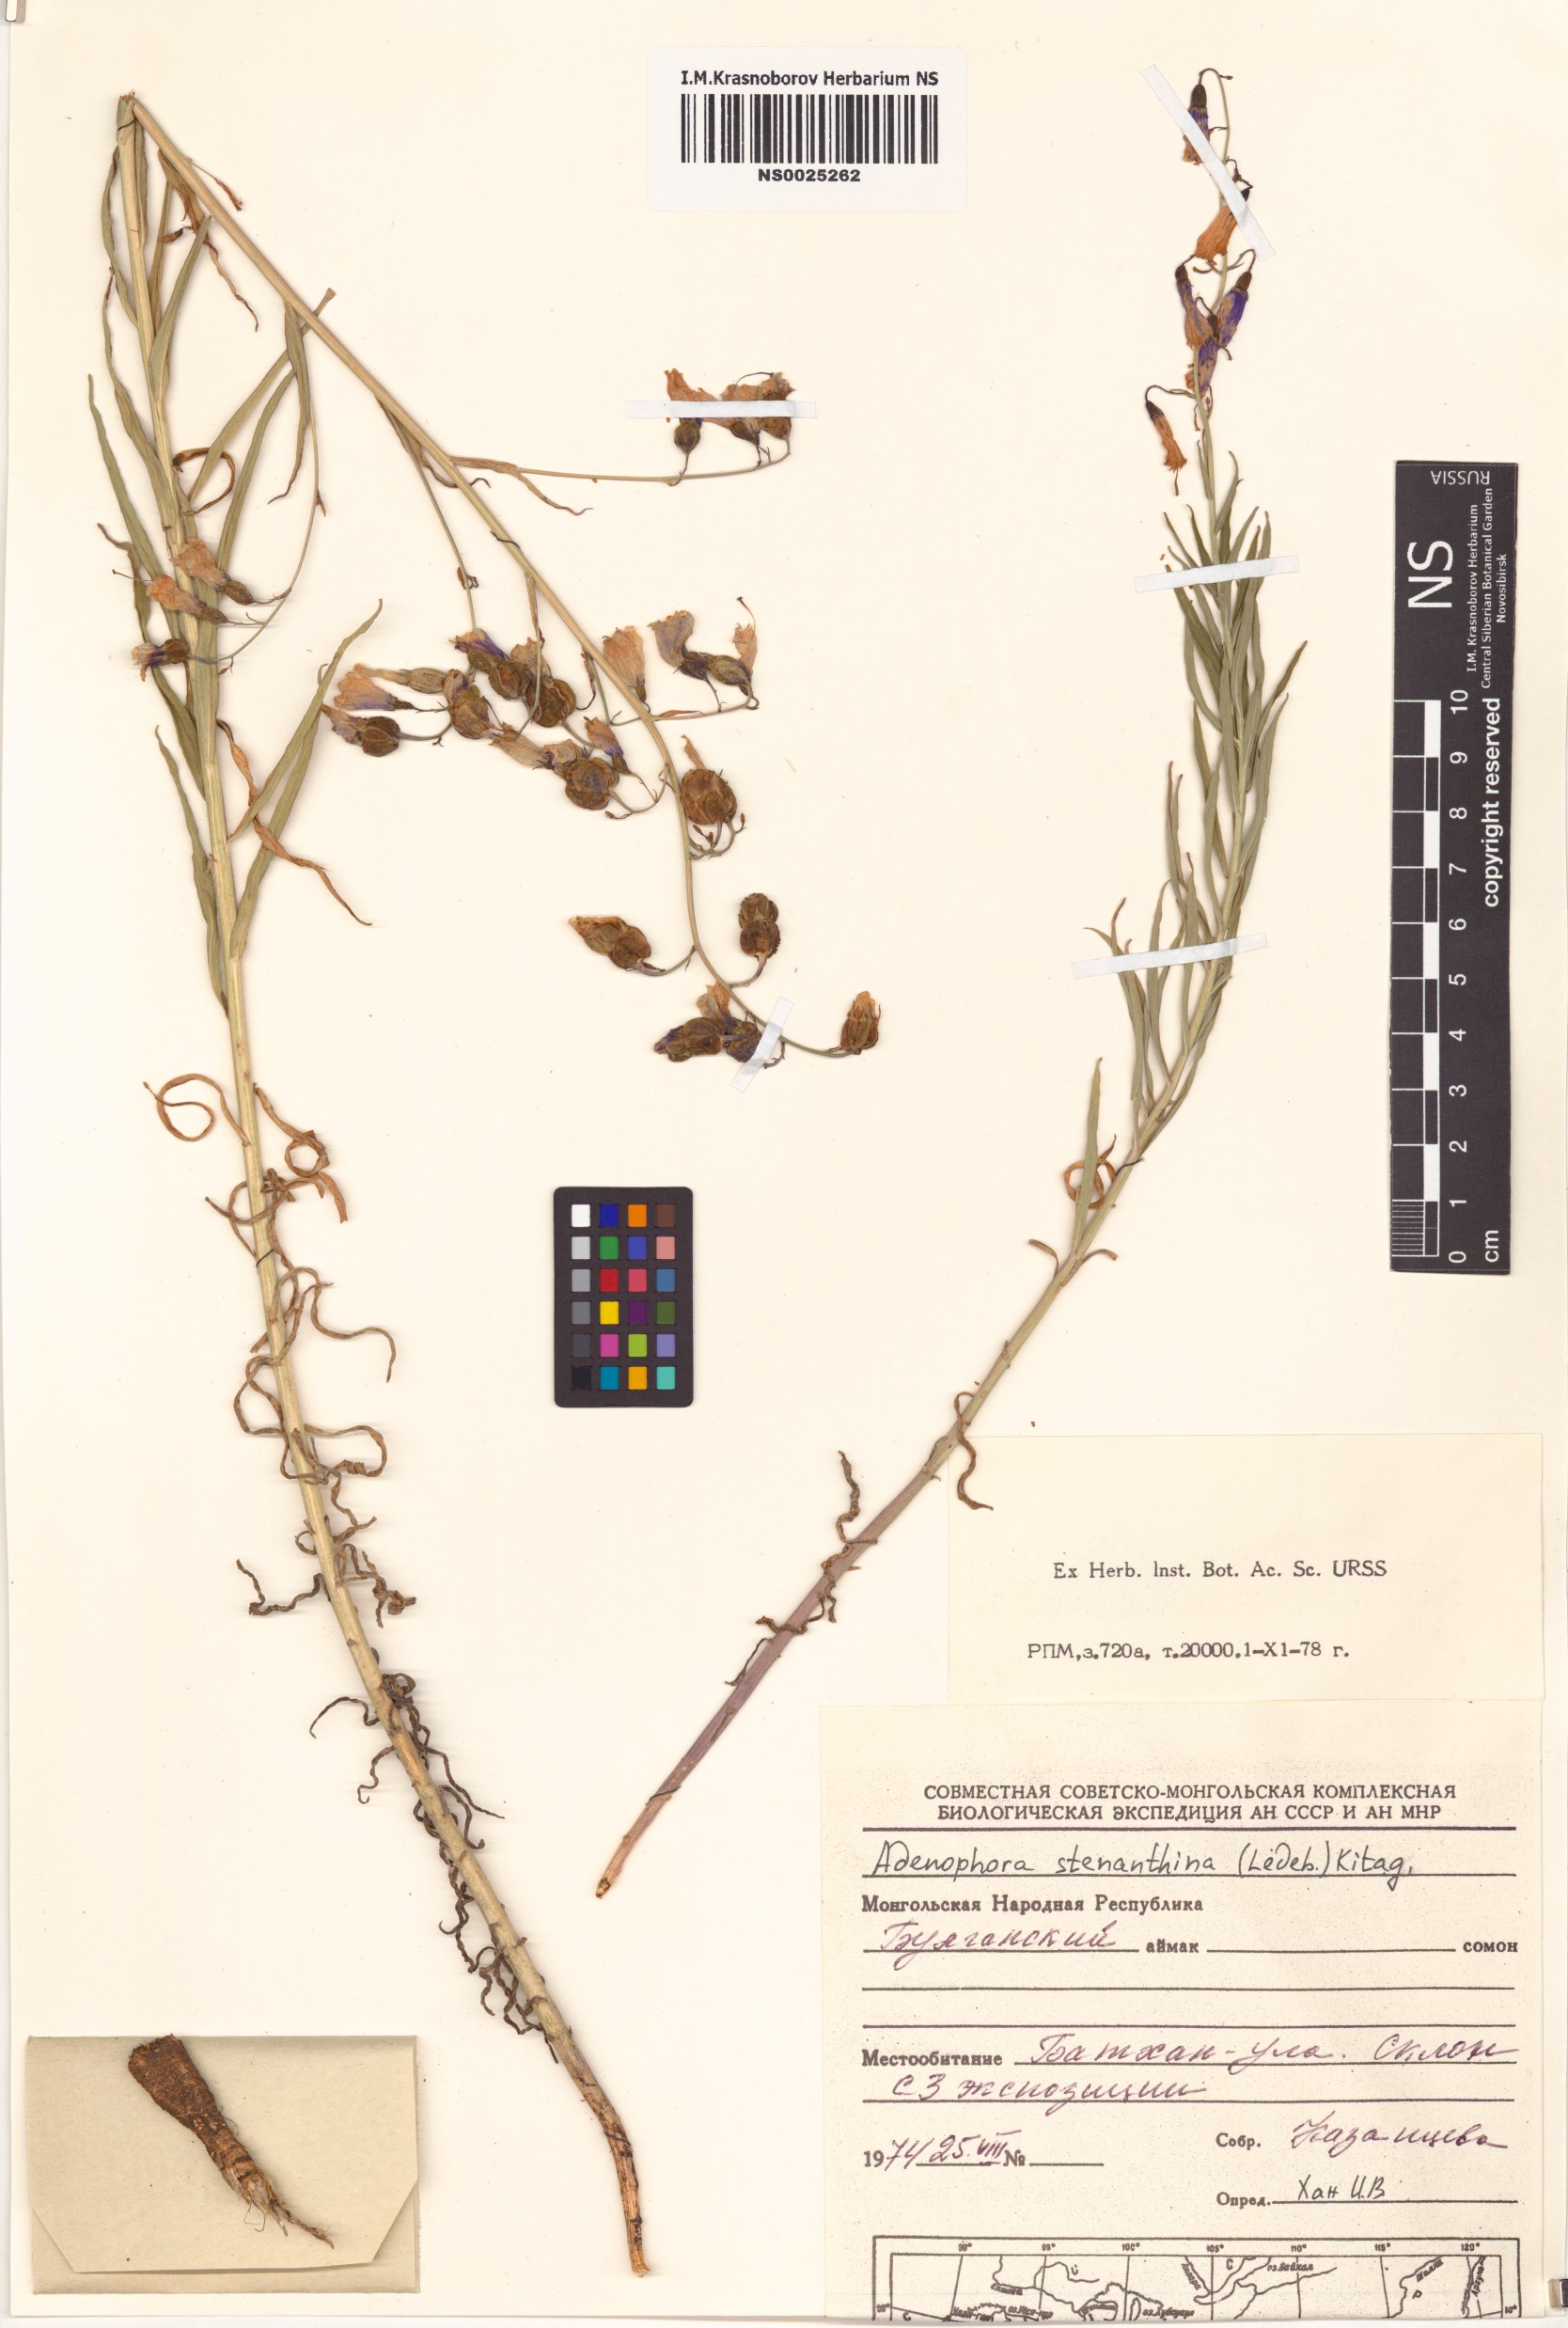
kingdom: Plantae
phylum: Tracheophyta
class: Magnoliopsida
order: Asterales
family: Campanulaceae
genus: Adenophora
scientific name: Adenophora stenanthina
